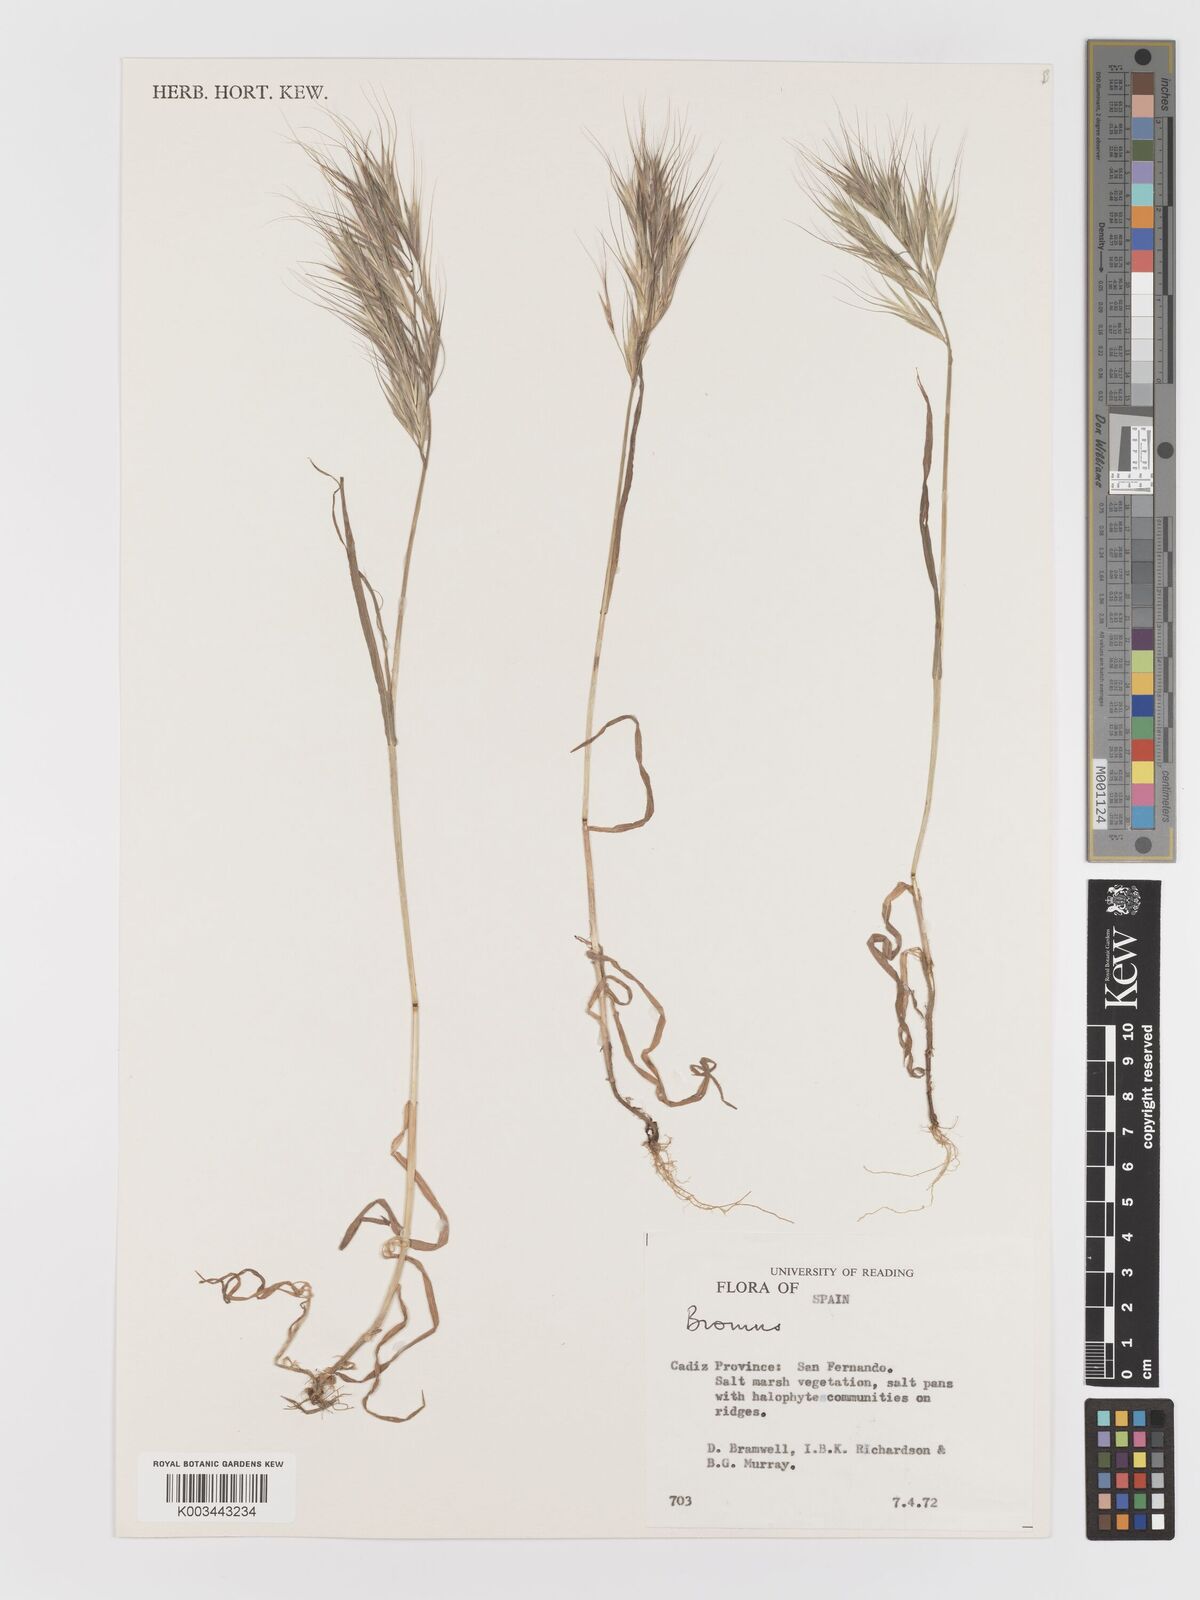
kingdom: Plantae
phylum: Tracheophyta
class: Liliopsida
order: Poales
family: Poaceae
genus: Bromus
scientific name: Bromus
